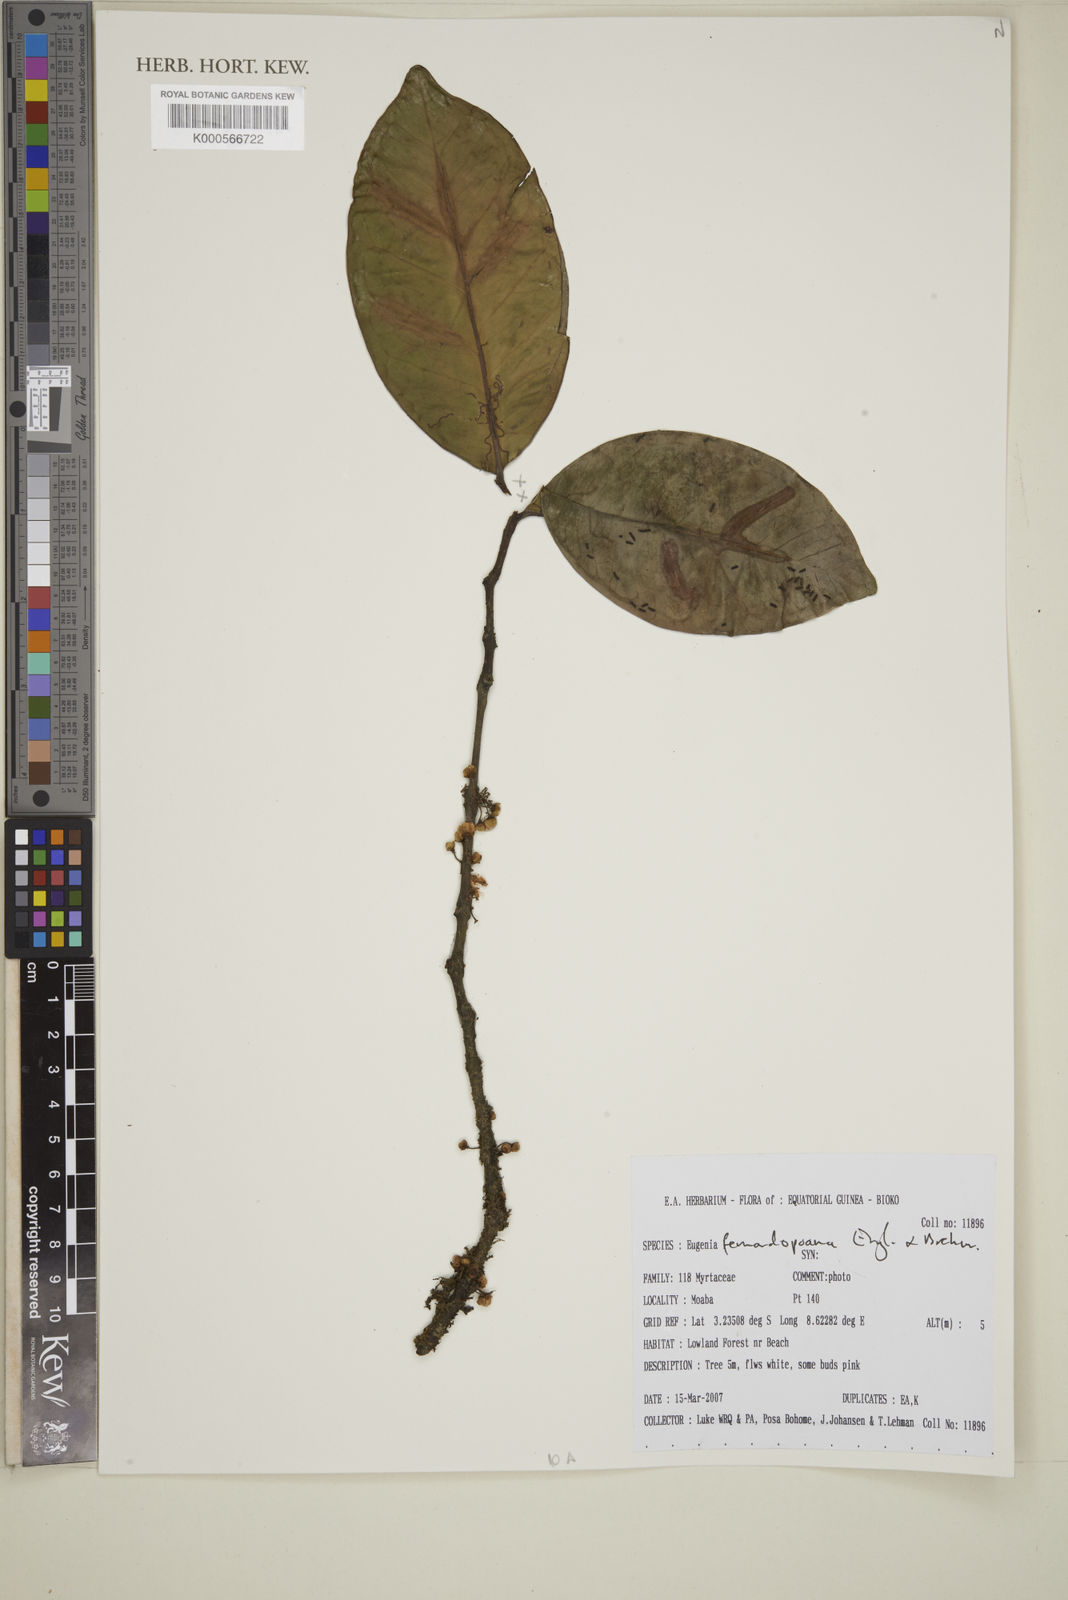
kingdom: Plantae
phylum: Tracheophyta
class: Magnoliopsida
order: Myrtales
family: Myrtaceae
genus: Eugenia
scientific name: Eugenia fernandopoana
